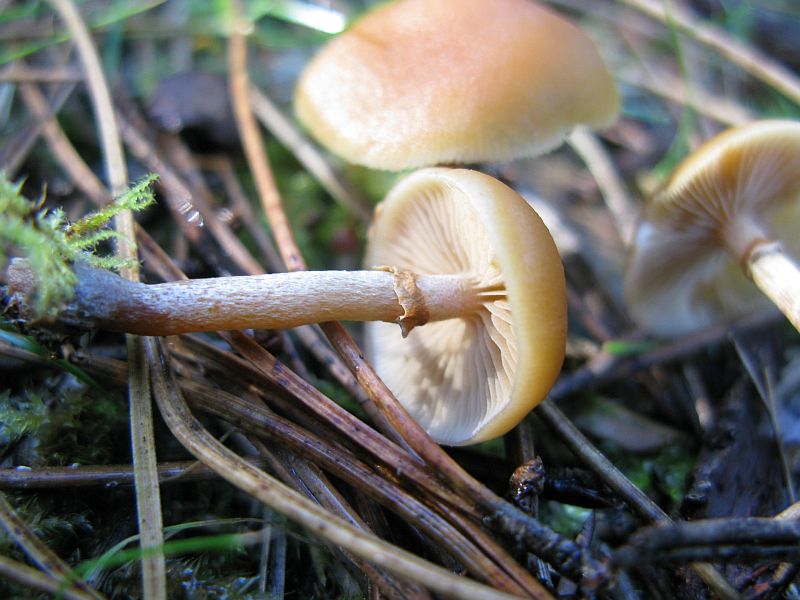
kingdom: Fungi
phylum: Basidiomycota
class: Agaricomycetes
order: Agaricales
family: Hymenogastraceae
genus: Galerina
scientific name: Galerina marginata
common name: randbæltet hjelmhat
